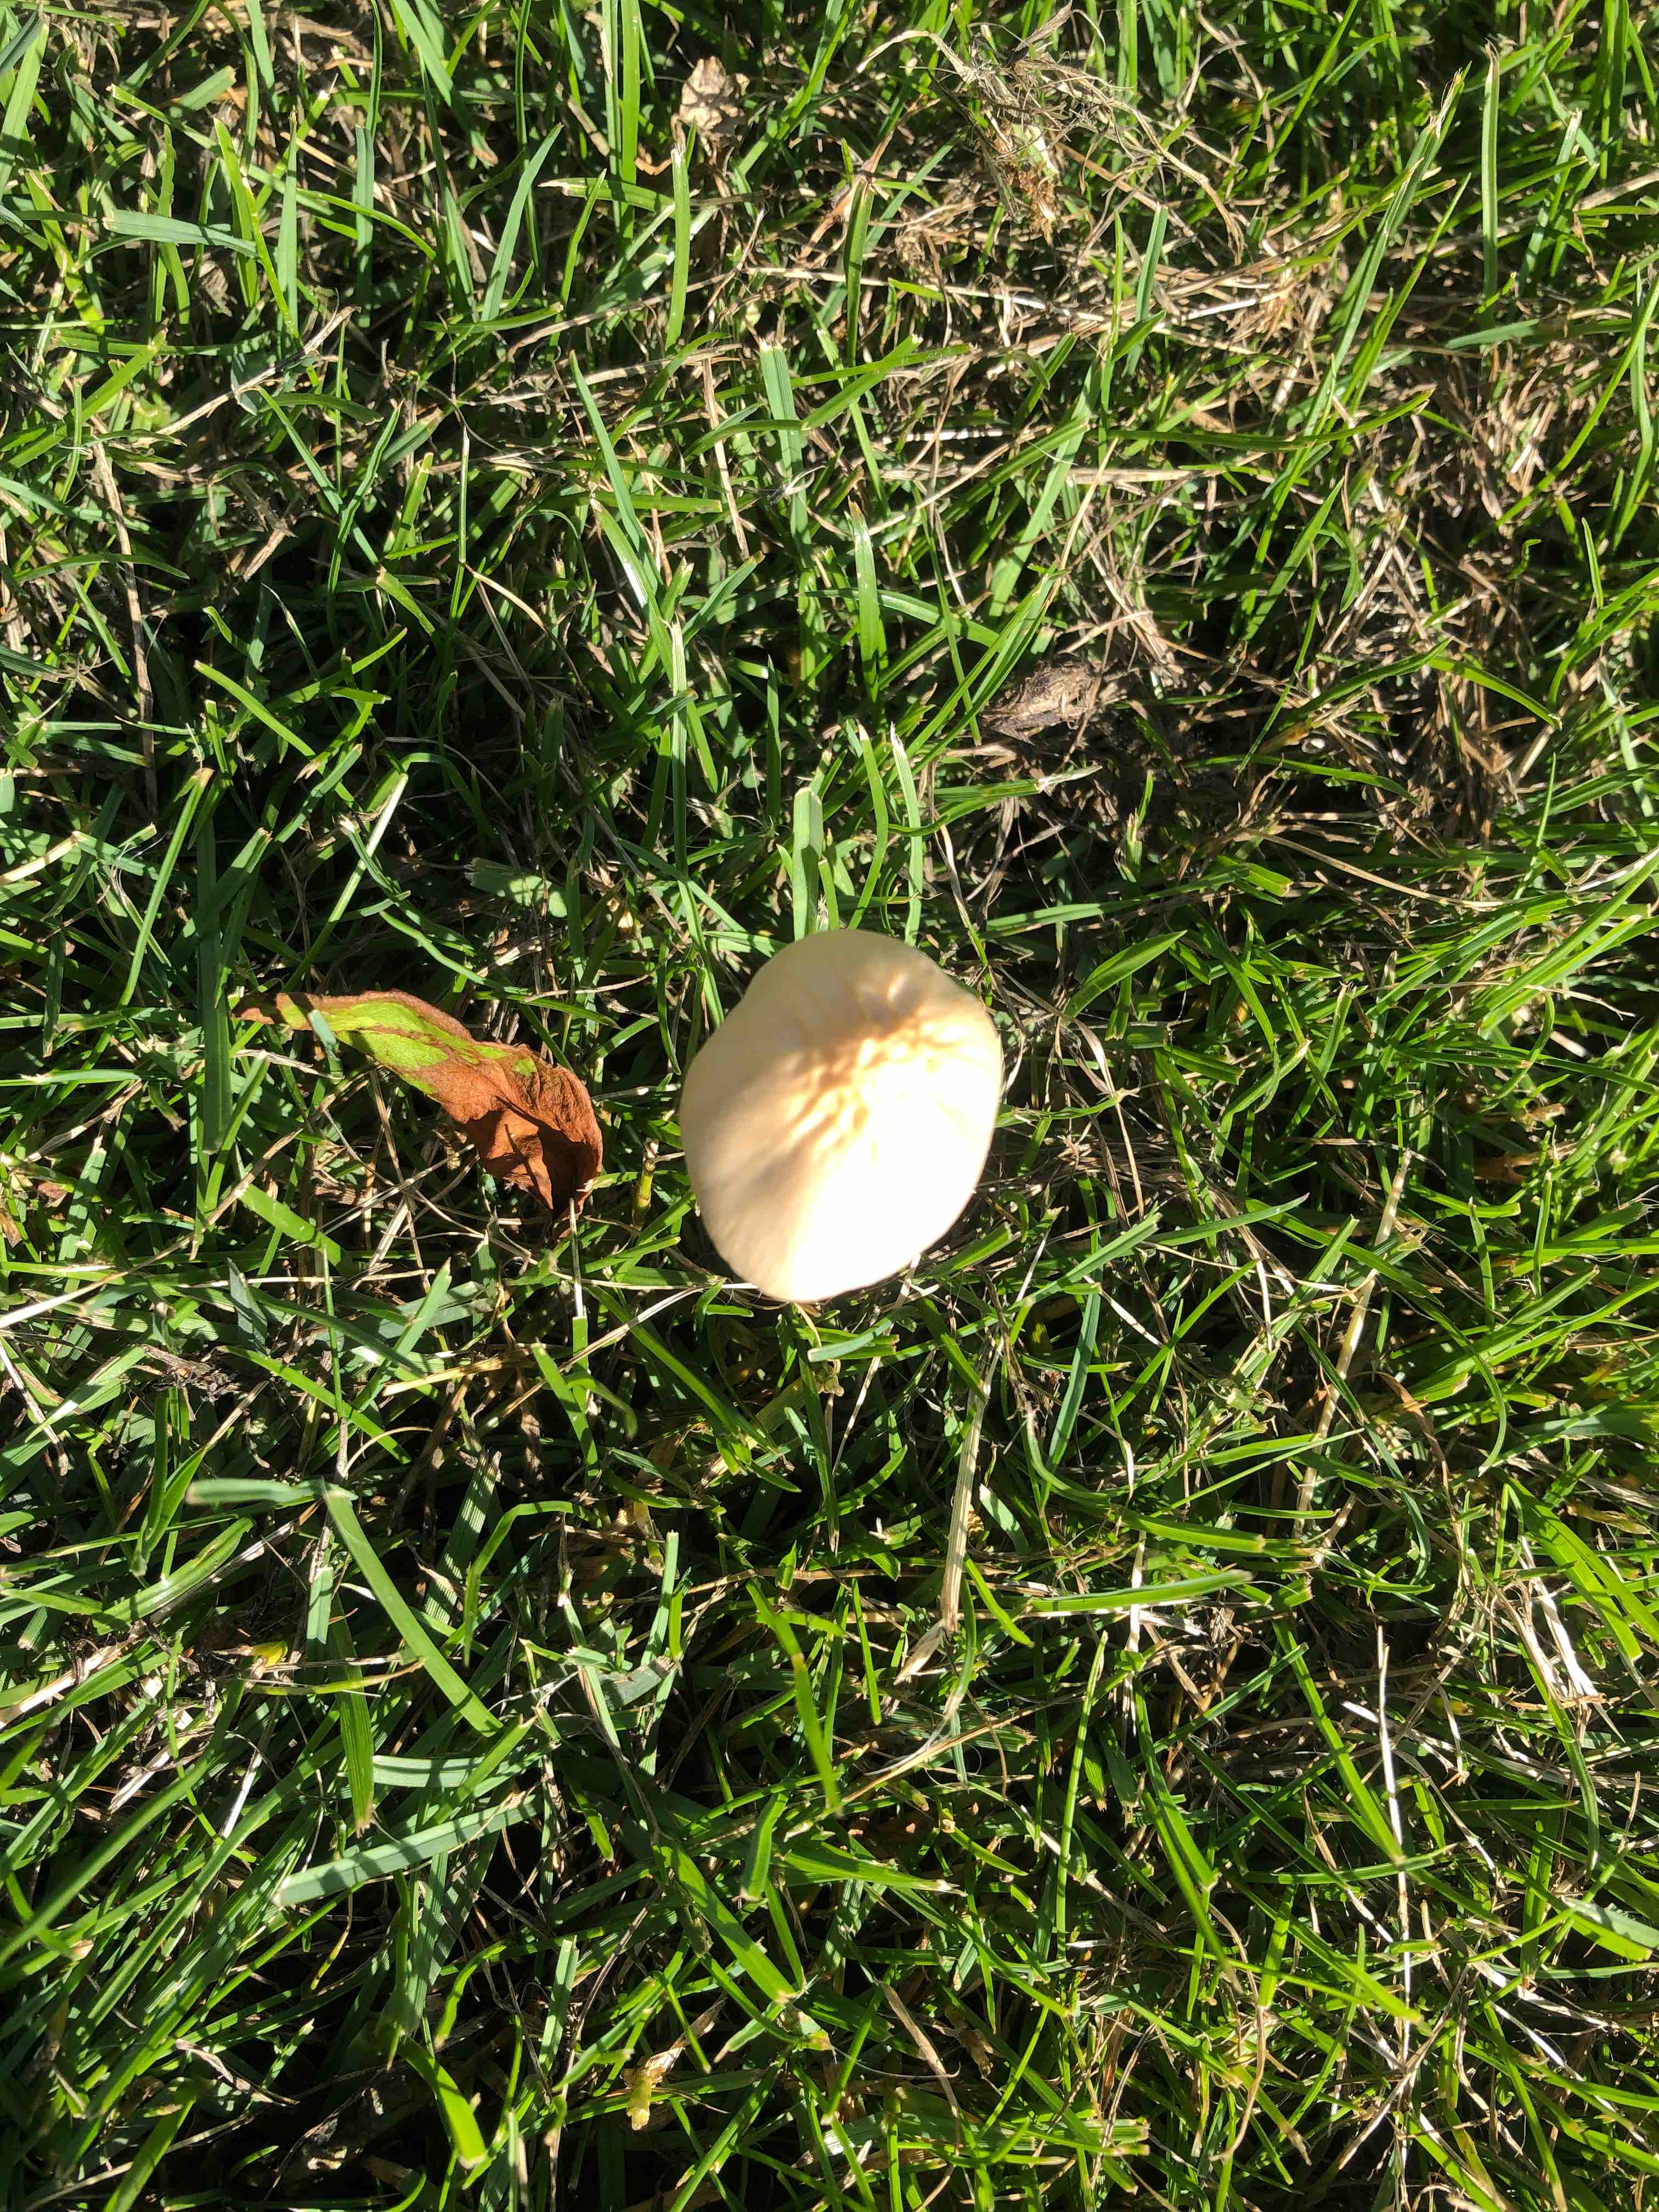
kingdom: Fungi
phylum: Basidiomycota
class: Agaricomycetes
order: Agaricales
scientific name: Agaricales
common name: champignonordenen
